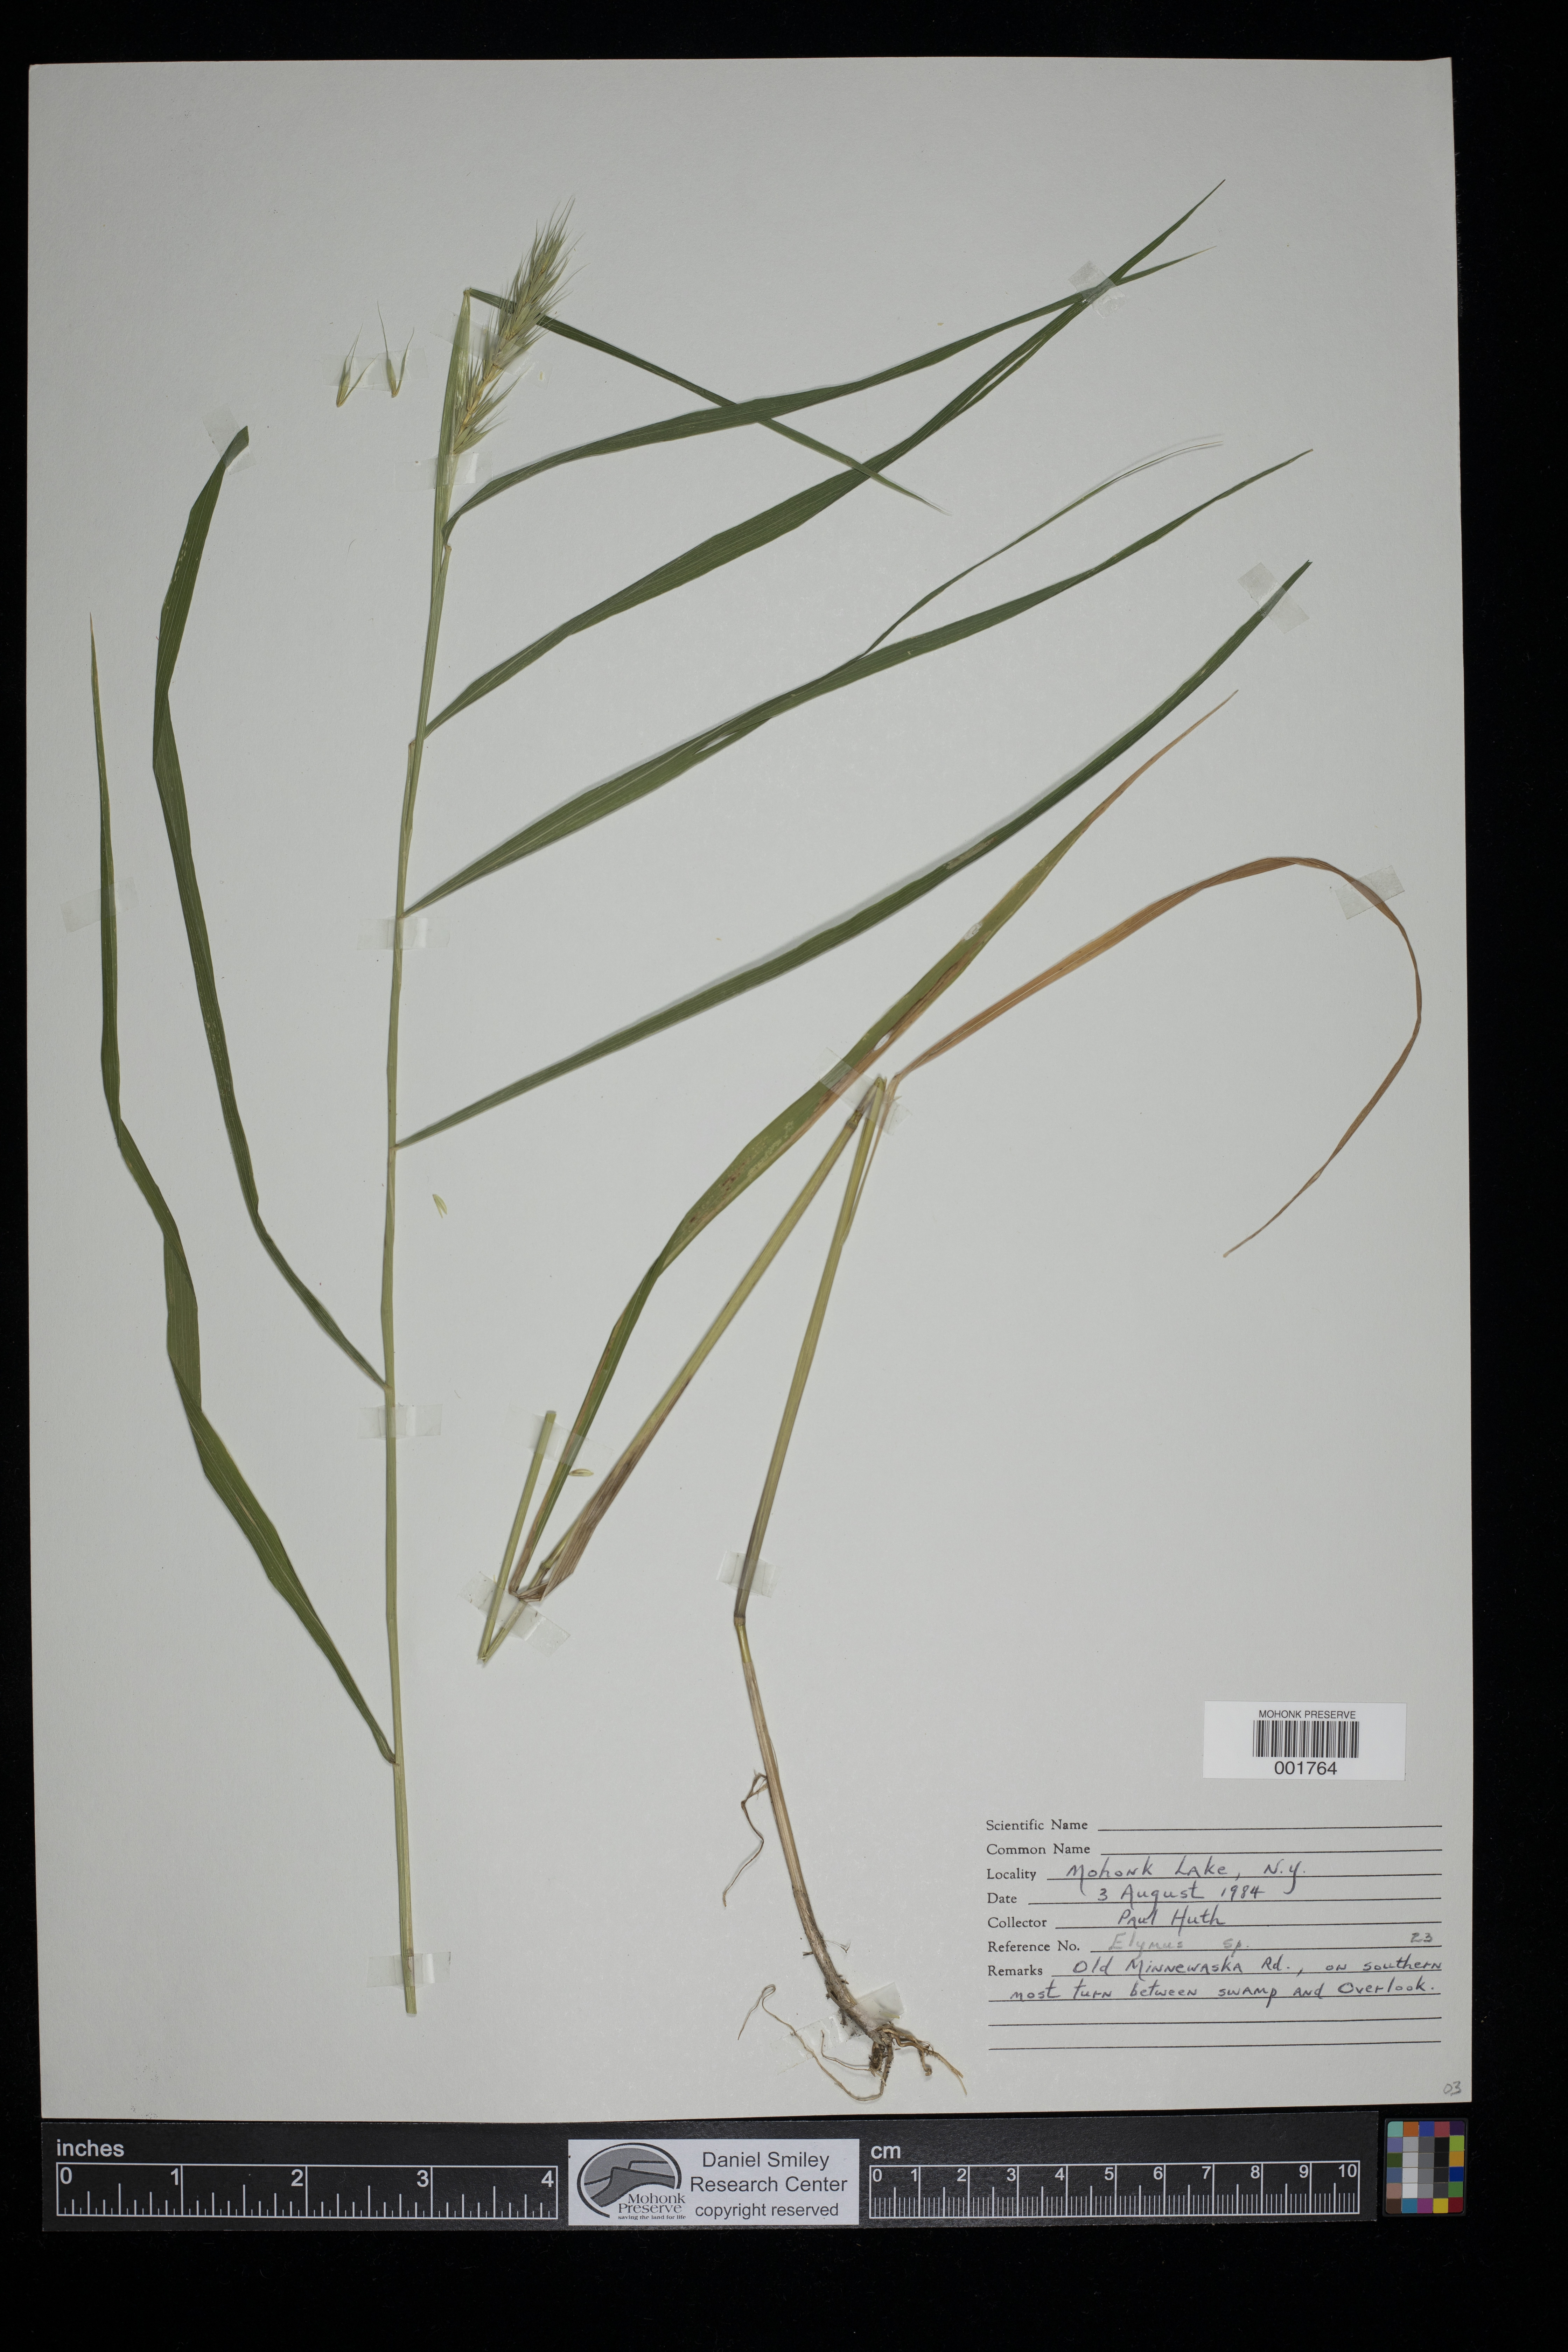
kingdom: Plantae
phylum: Tracheophyta
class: Liliopsida
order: Poales
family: Poaceae
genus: Elymus
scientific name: Elymus
